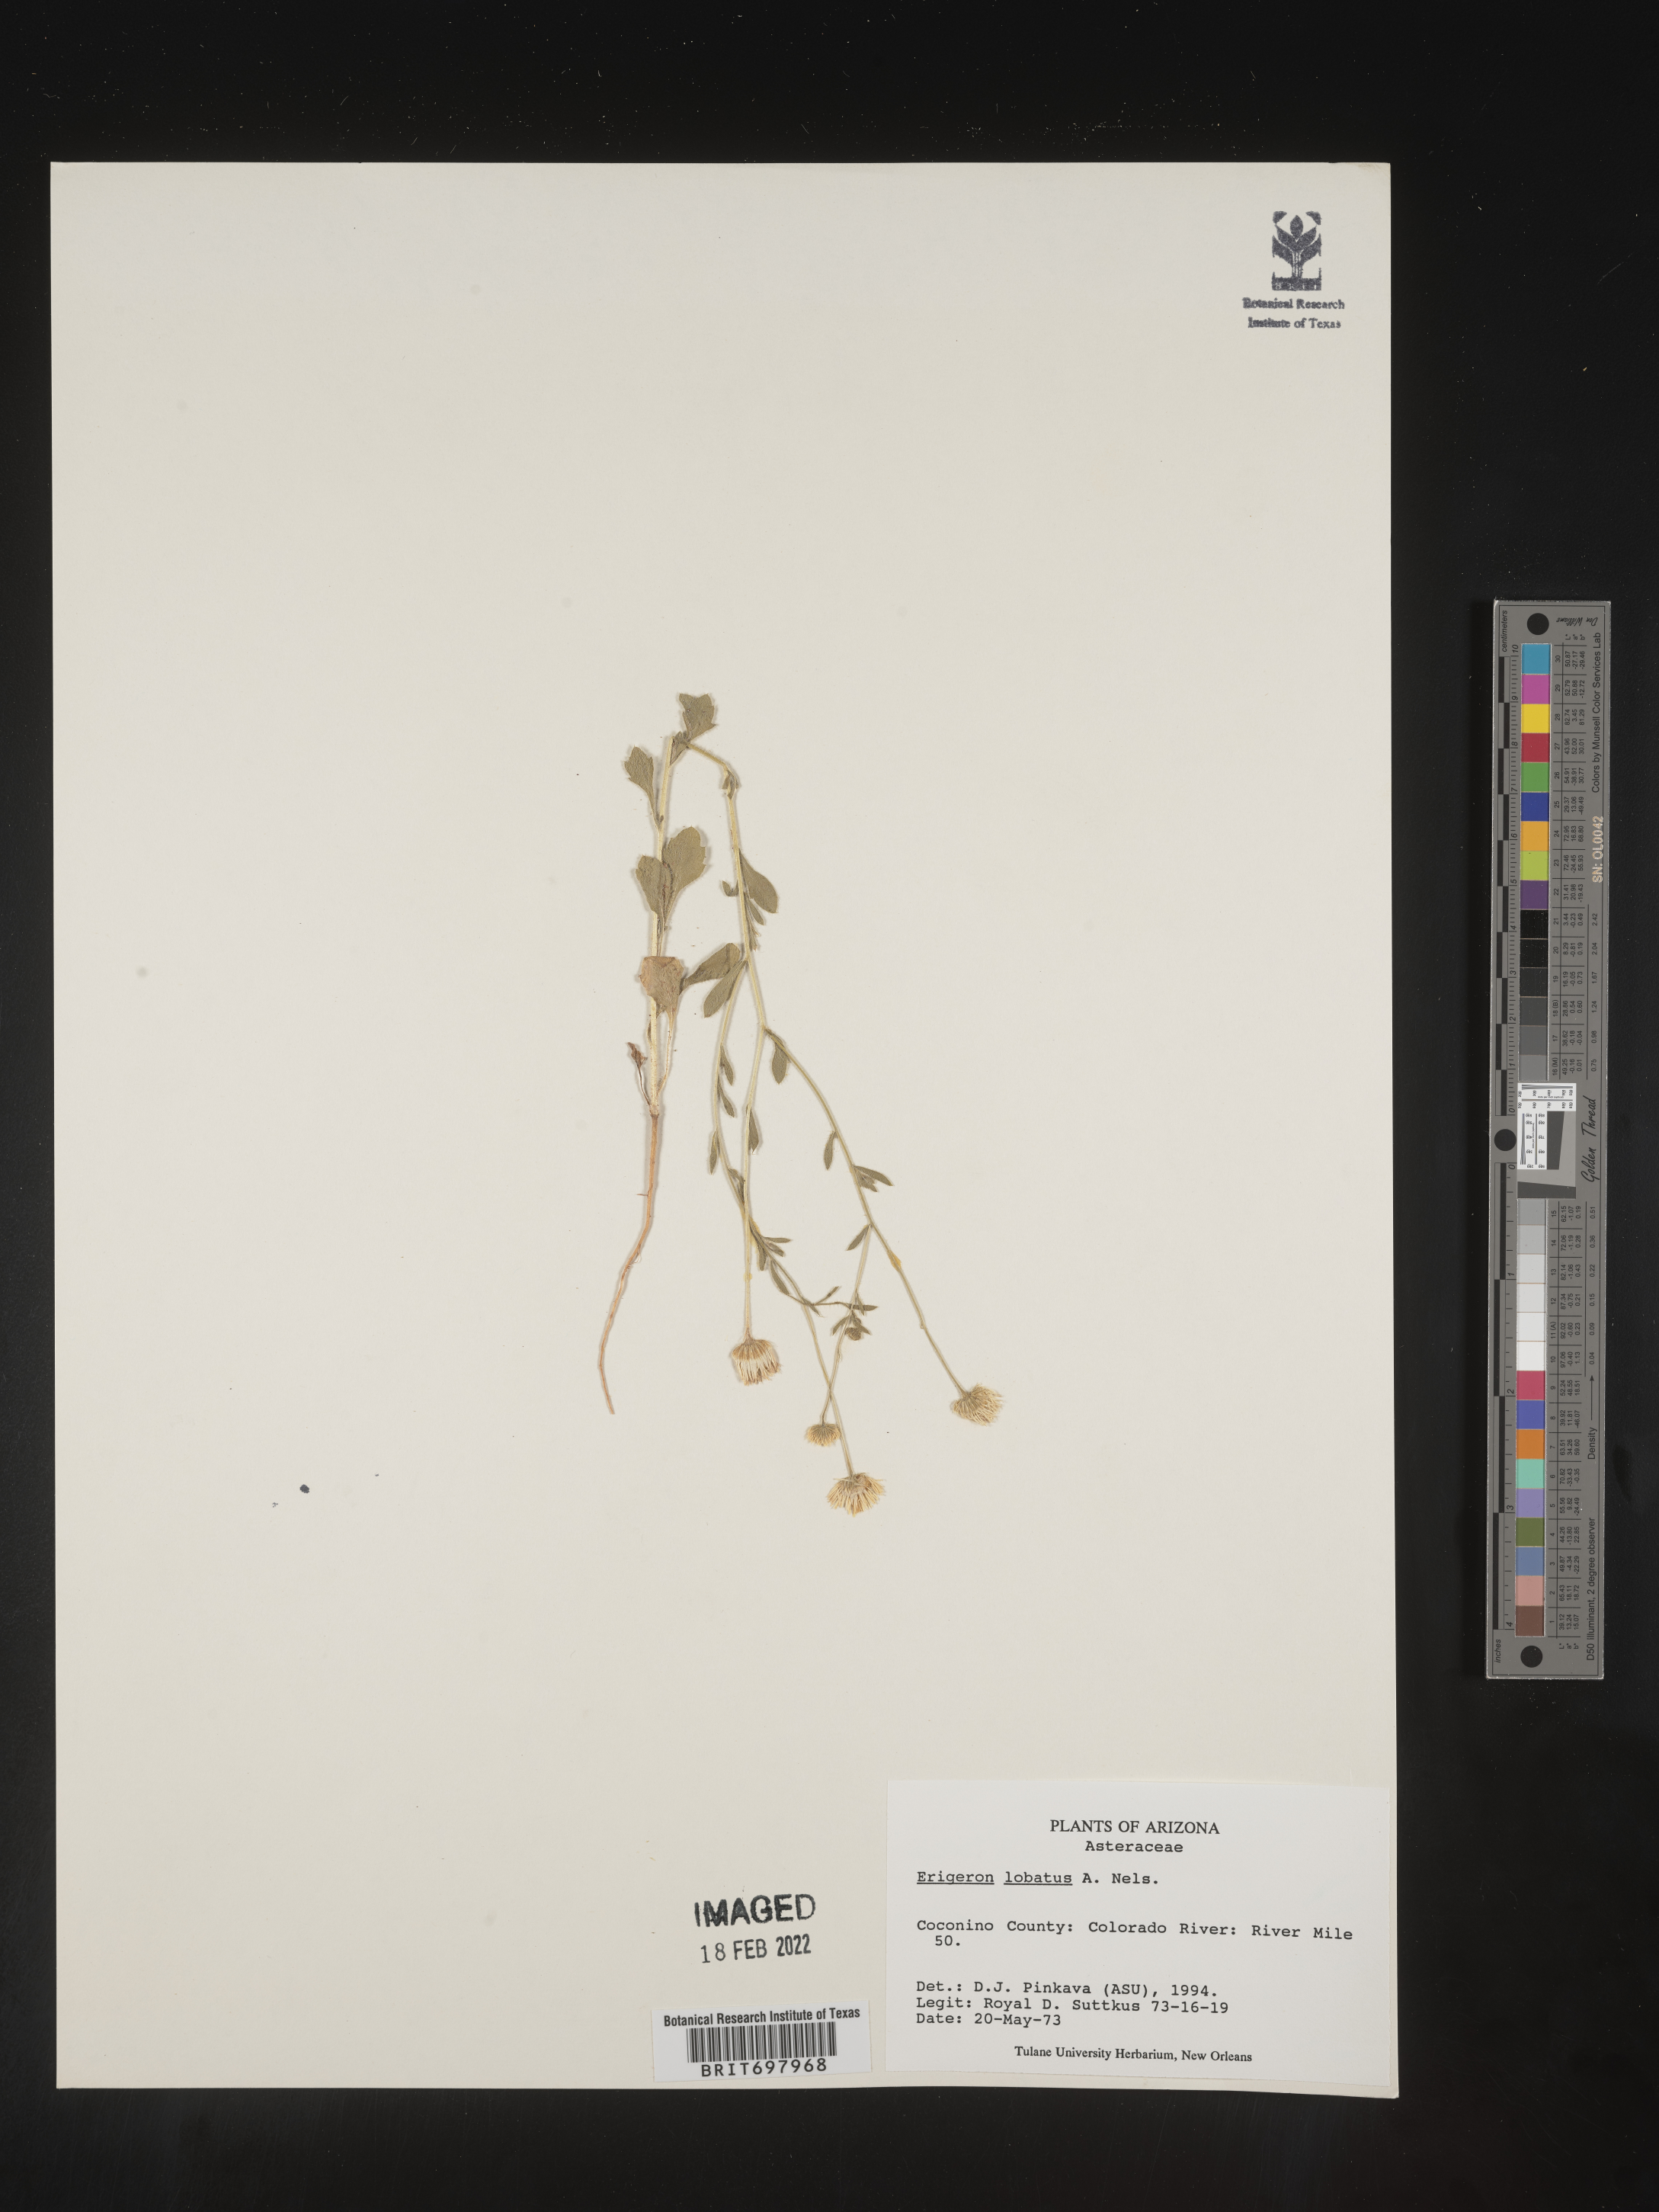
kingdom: Plantae
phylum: Tracheophyta
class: Magnoliopsida
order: Asterales
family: Asteraceae
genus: Erigeron
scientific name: Erigeron lobatus
